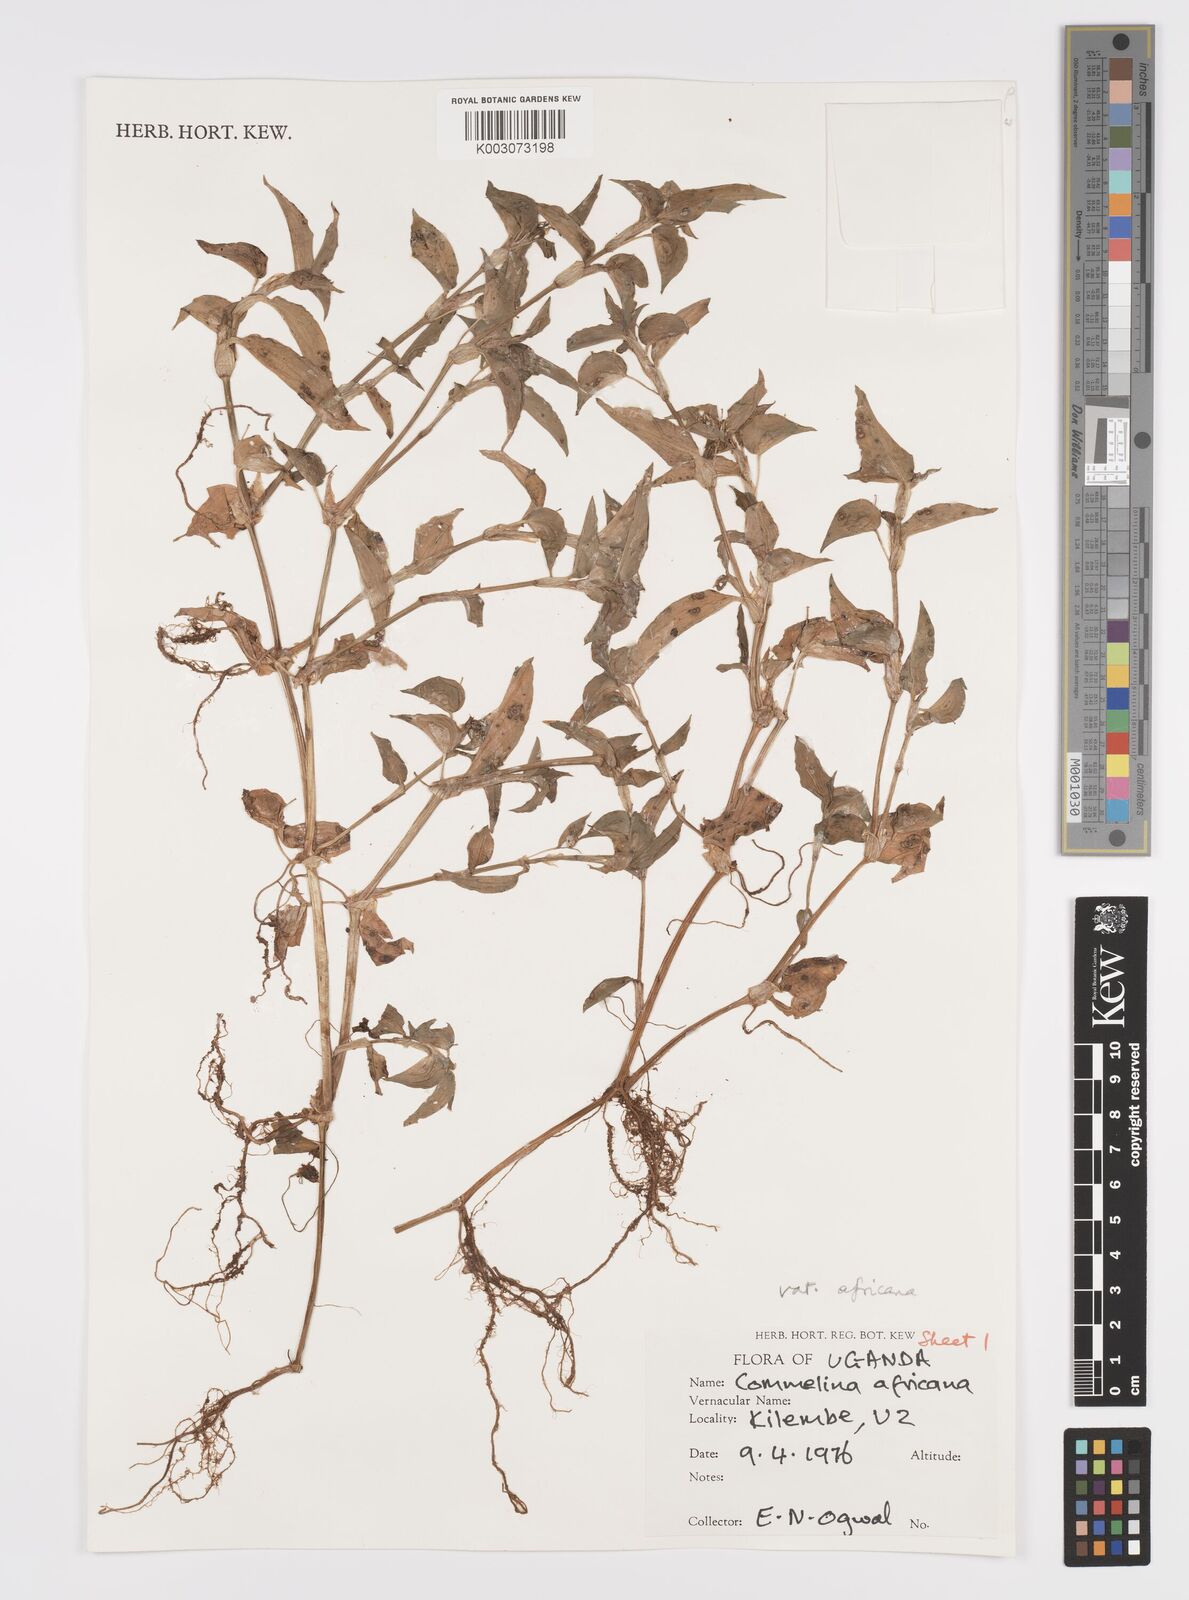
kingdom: Plantae
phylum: Tracheophyta
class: Liliopsida
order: Commelinales
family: Commelinaceae
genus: Commelina
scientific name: Commelina africana
